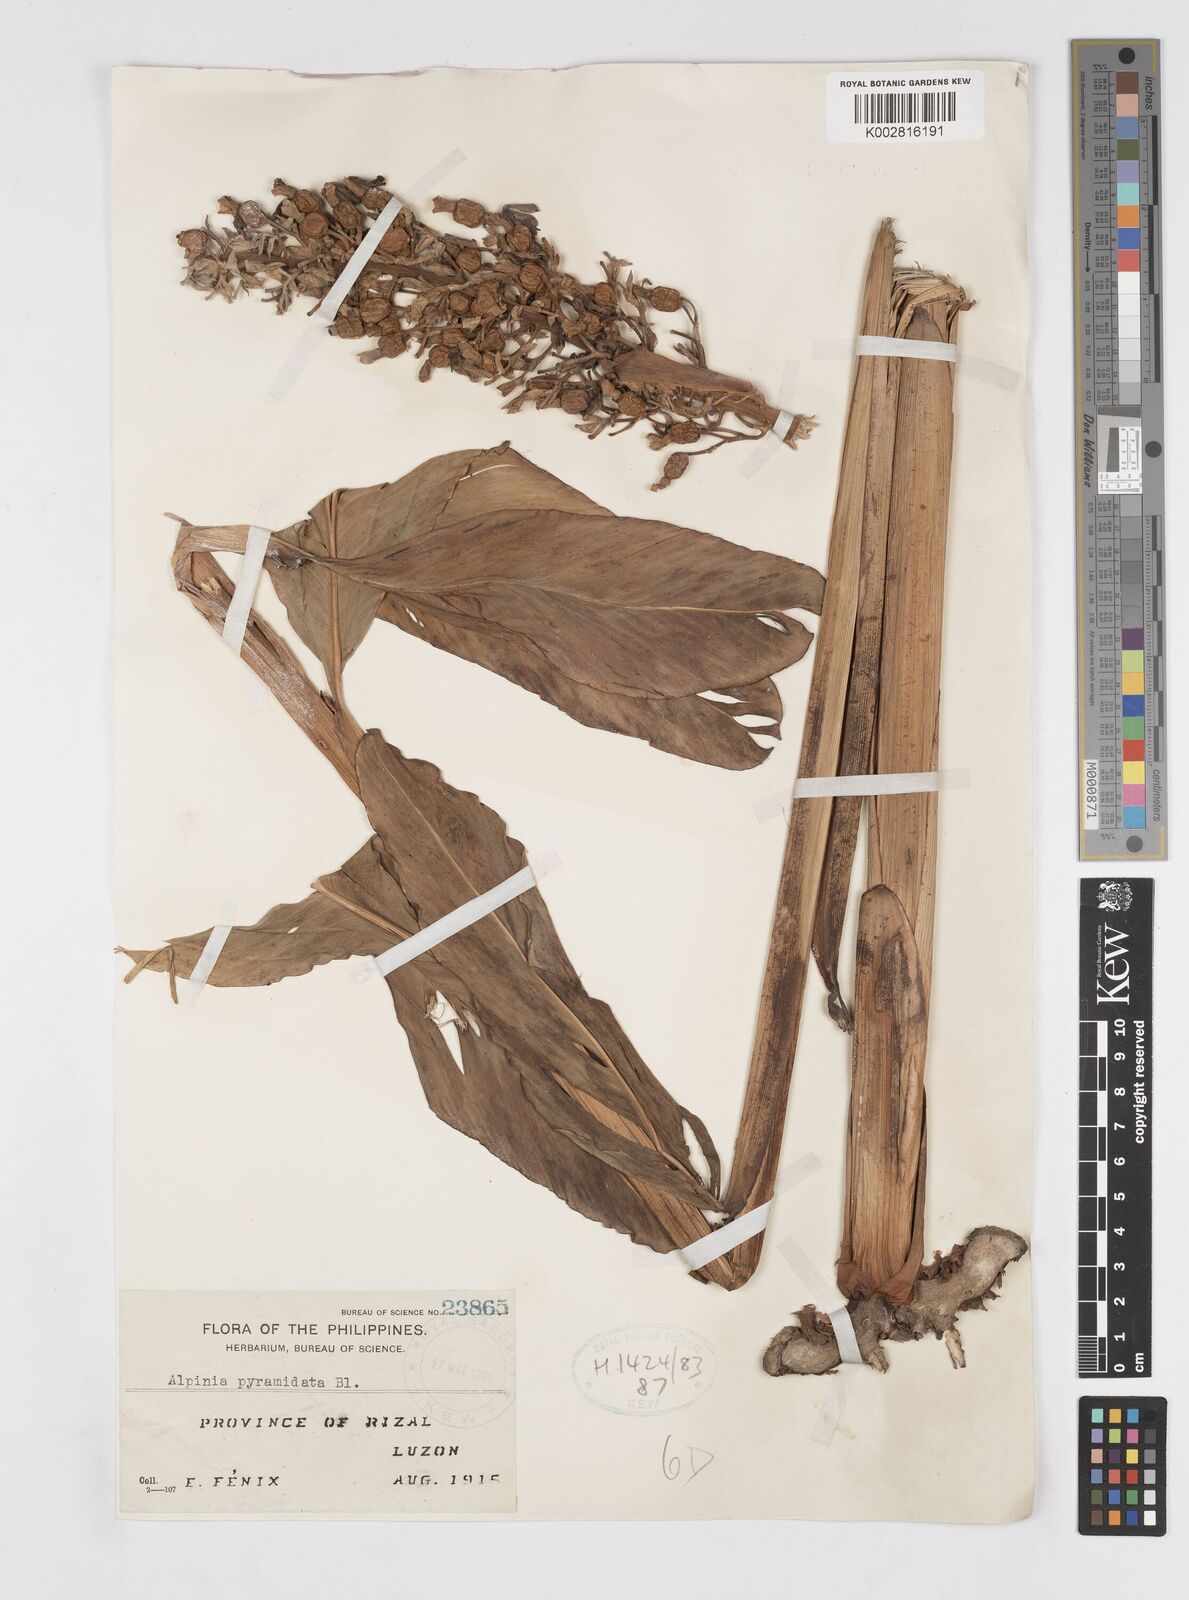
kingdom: Plantae
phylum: Tracheophyta
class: Liliopsida
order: Zingiberales
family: Zingiberaceae
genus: Alpinia
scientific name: Alpinia galanga
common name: Siamese-ginger
